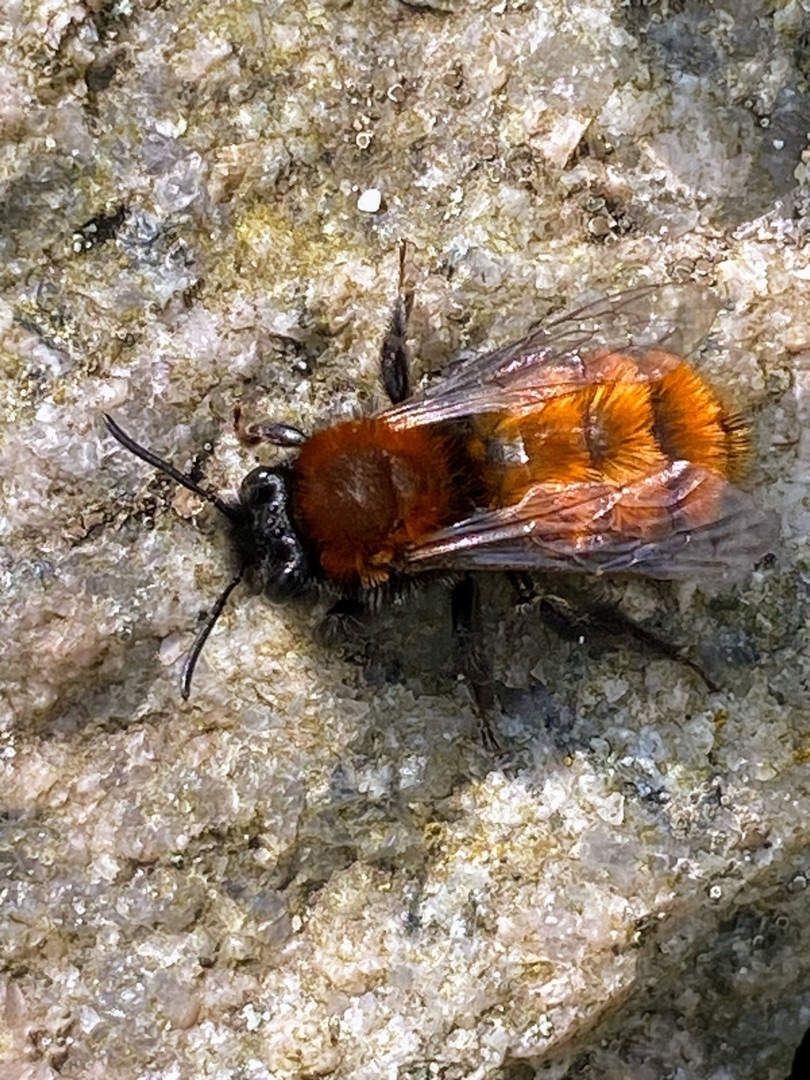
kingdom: Animalia
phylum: Arthropoda
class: Insecta
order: Hymenoptera
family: Andrenidae
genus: Andrena
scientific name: Andrena fulva
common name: Rødpelset jordbi
